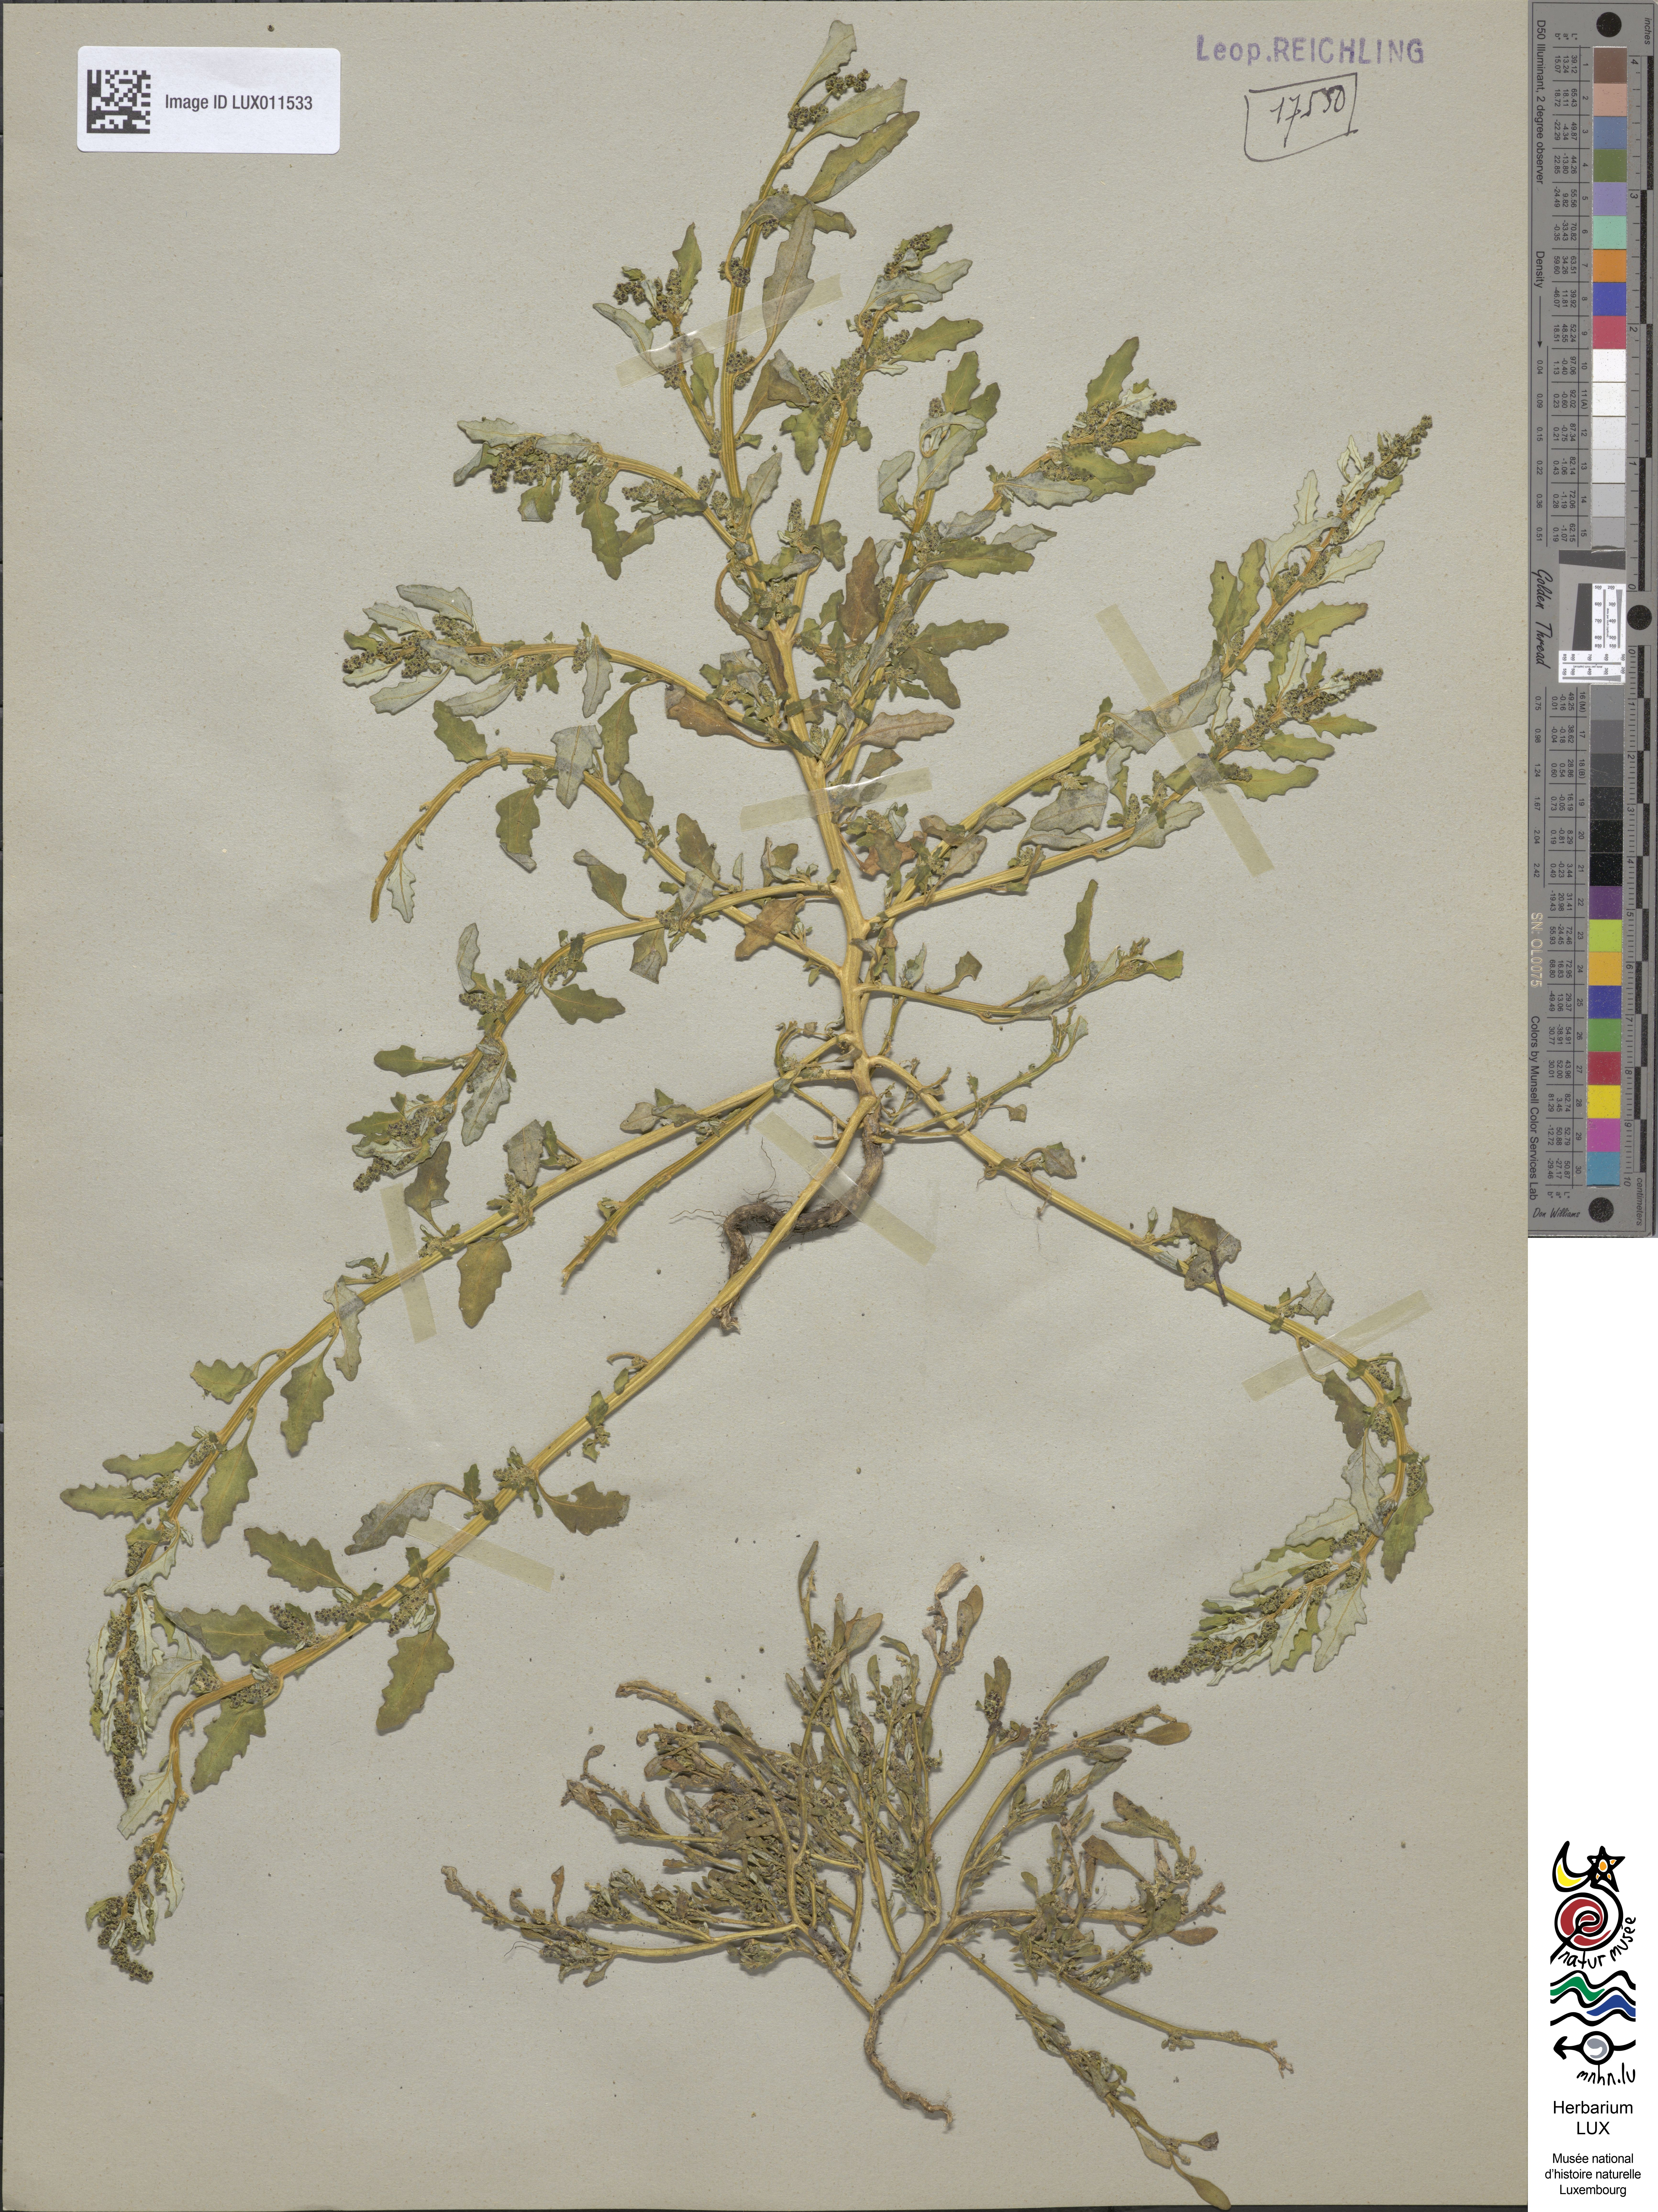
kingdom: Plantae
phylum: Tracheophyta
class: Magnoliopsida
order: Caryophyllales
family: Amaranthaceae
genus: Oxybasis
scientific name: Oxybasis glauca
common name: Glaucous goosefoot
